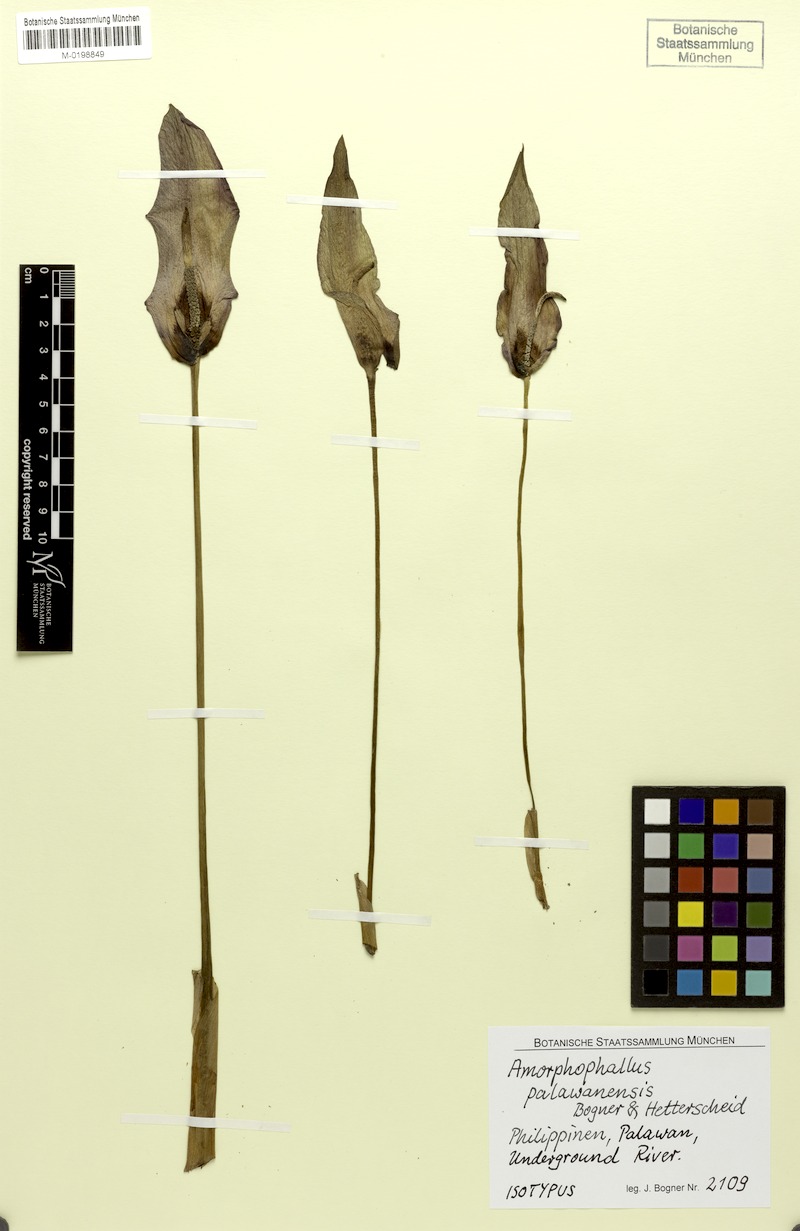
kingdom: Plantae
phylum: Tracheophyta
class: Liliopsida
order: Alismatales
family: Araceae
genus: Amorphophallus
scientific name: Amorphophallus palawanensis
